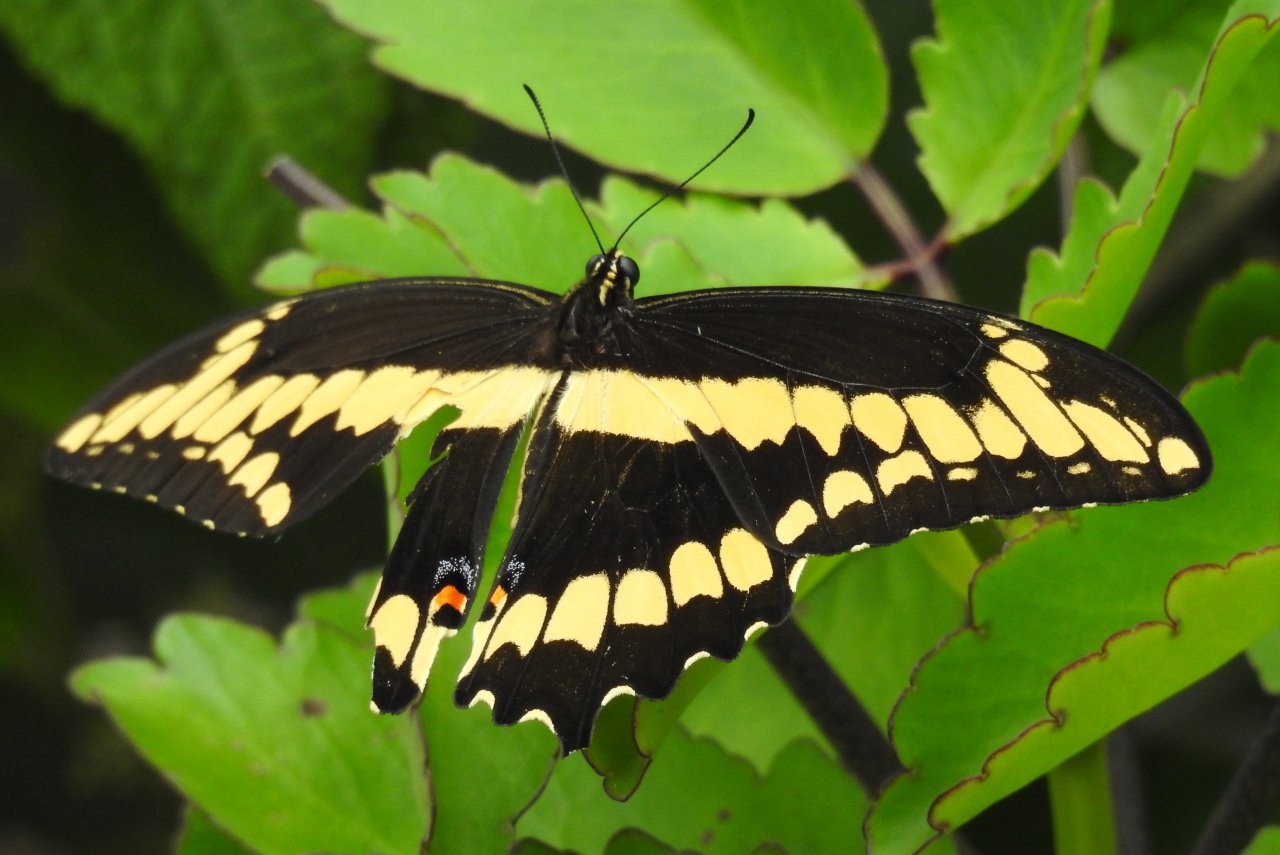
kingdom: Animalia
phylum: Arthropoda
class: Insecta
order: Lepidoptera
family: Papilionidae
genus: Papilio
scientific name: Papilio cresphontes
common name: Eastern Giant Swallowtail
